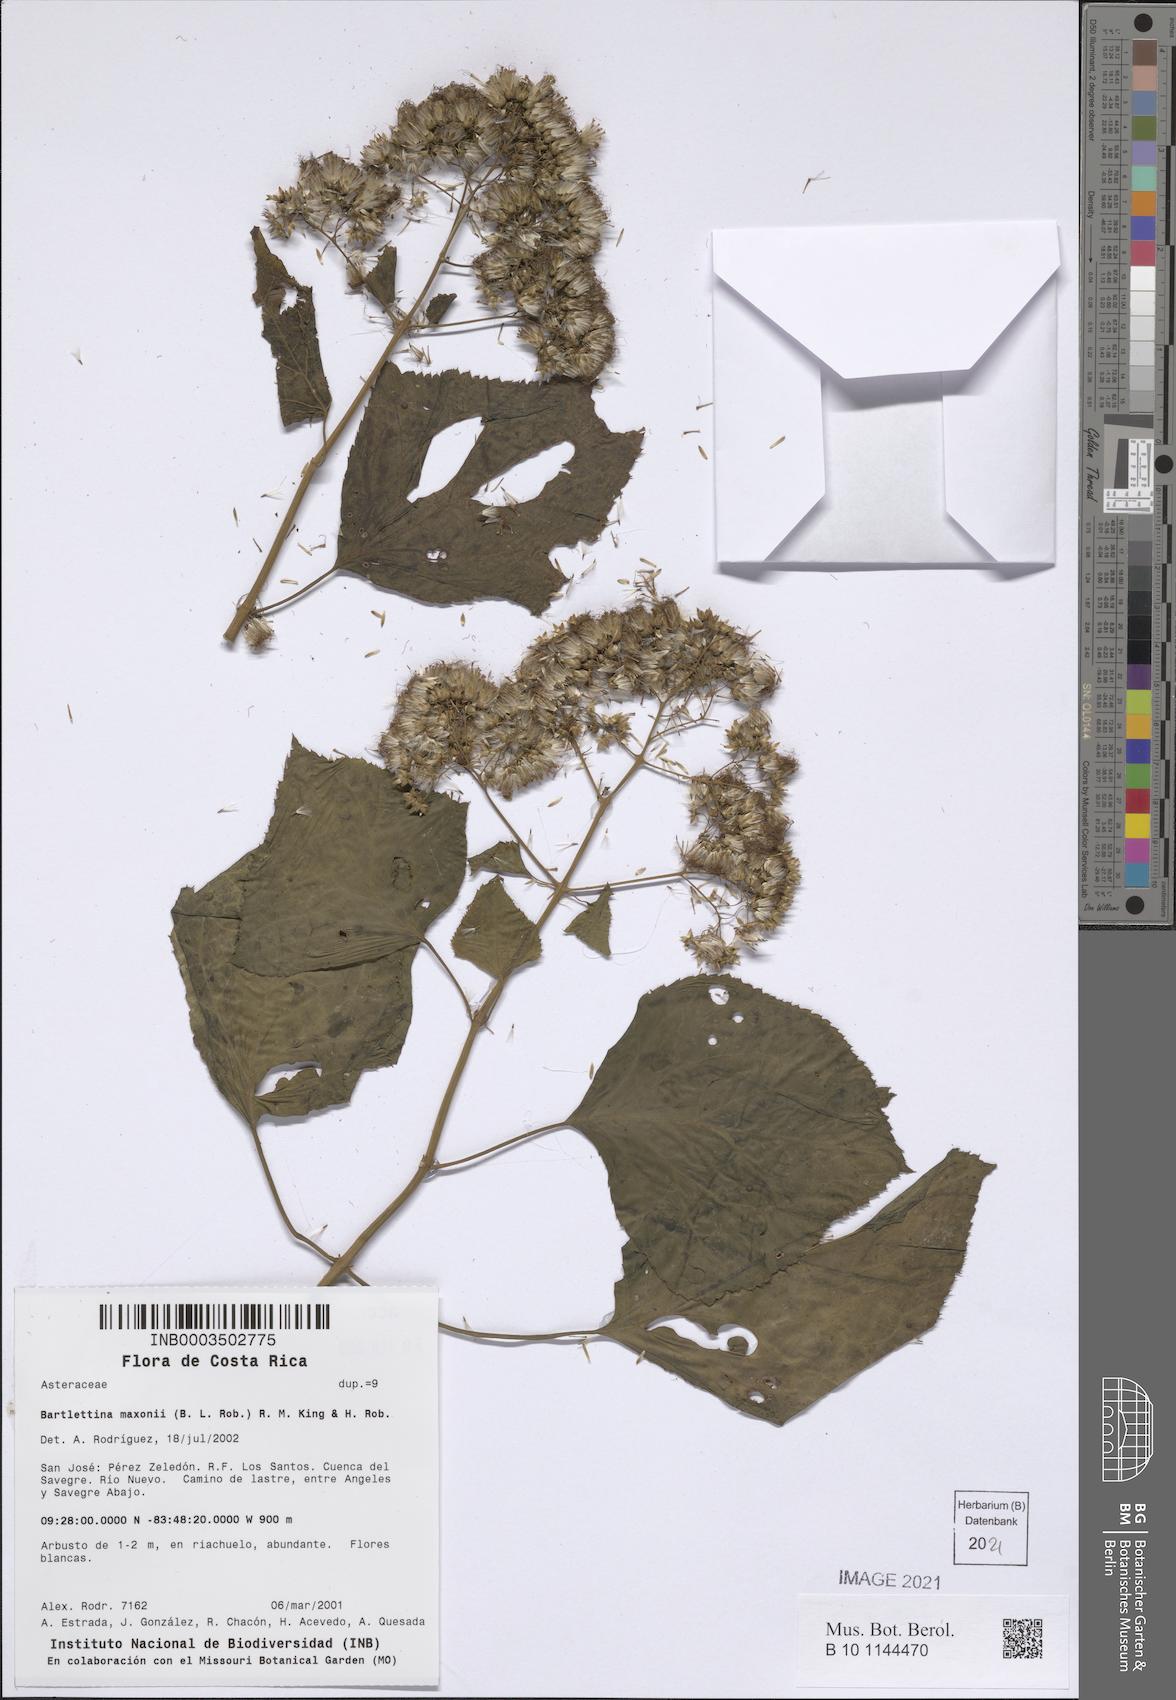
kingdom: Plantae
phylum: Tracheophyta
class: Magnoliopsida
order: Asterales
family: Asteraceae
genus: Bartlettina
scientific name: Bartlettina maxonii
